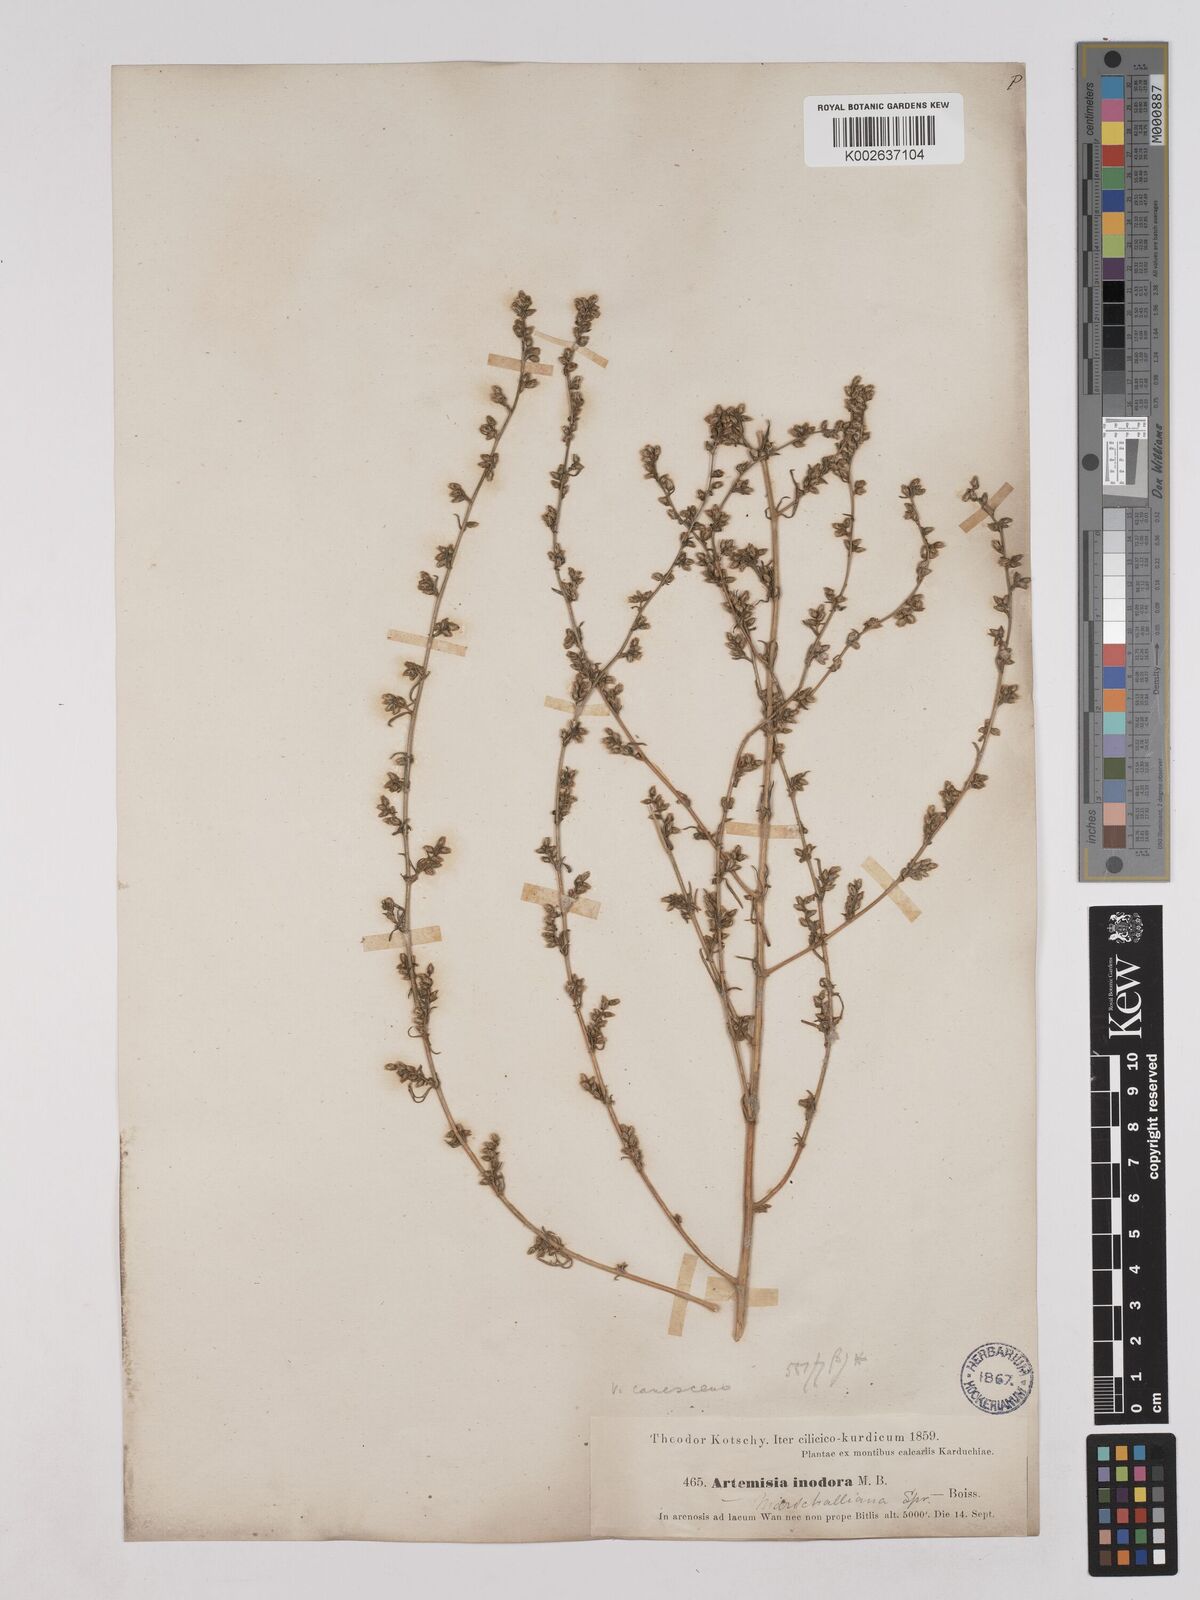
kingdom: Plantae
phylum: Tracheophyta
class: Magnoliopsida
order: Asterales
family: Asteraceae
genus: Artemisia
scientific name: Artemisia marschalliana
